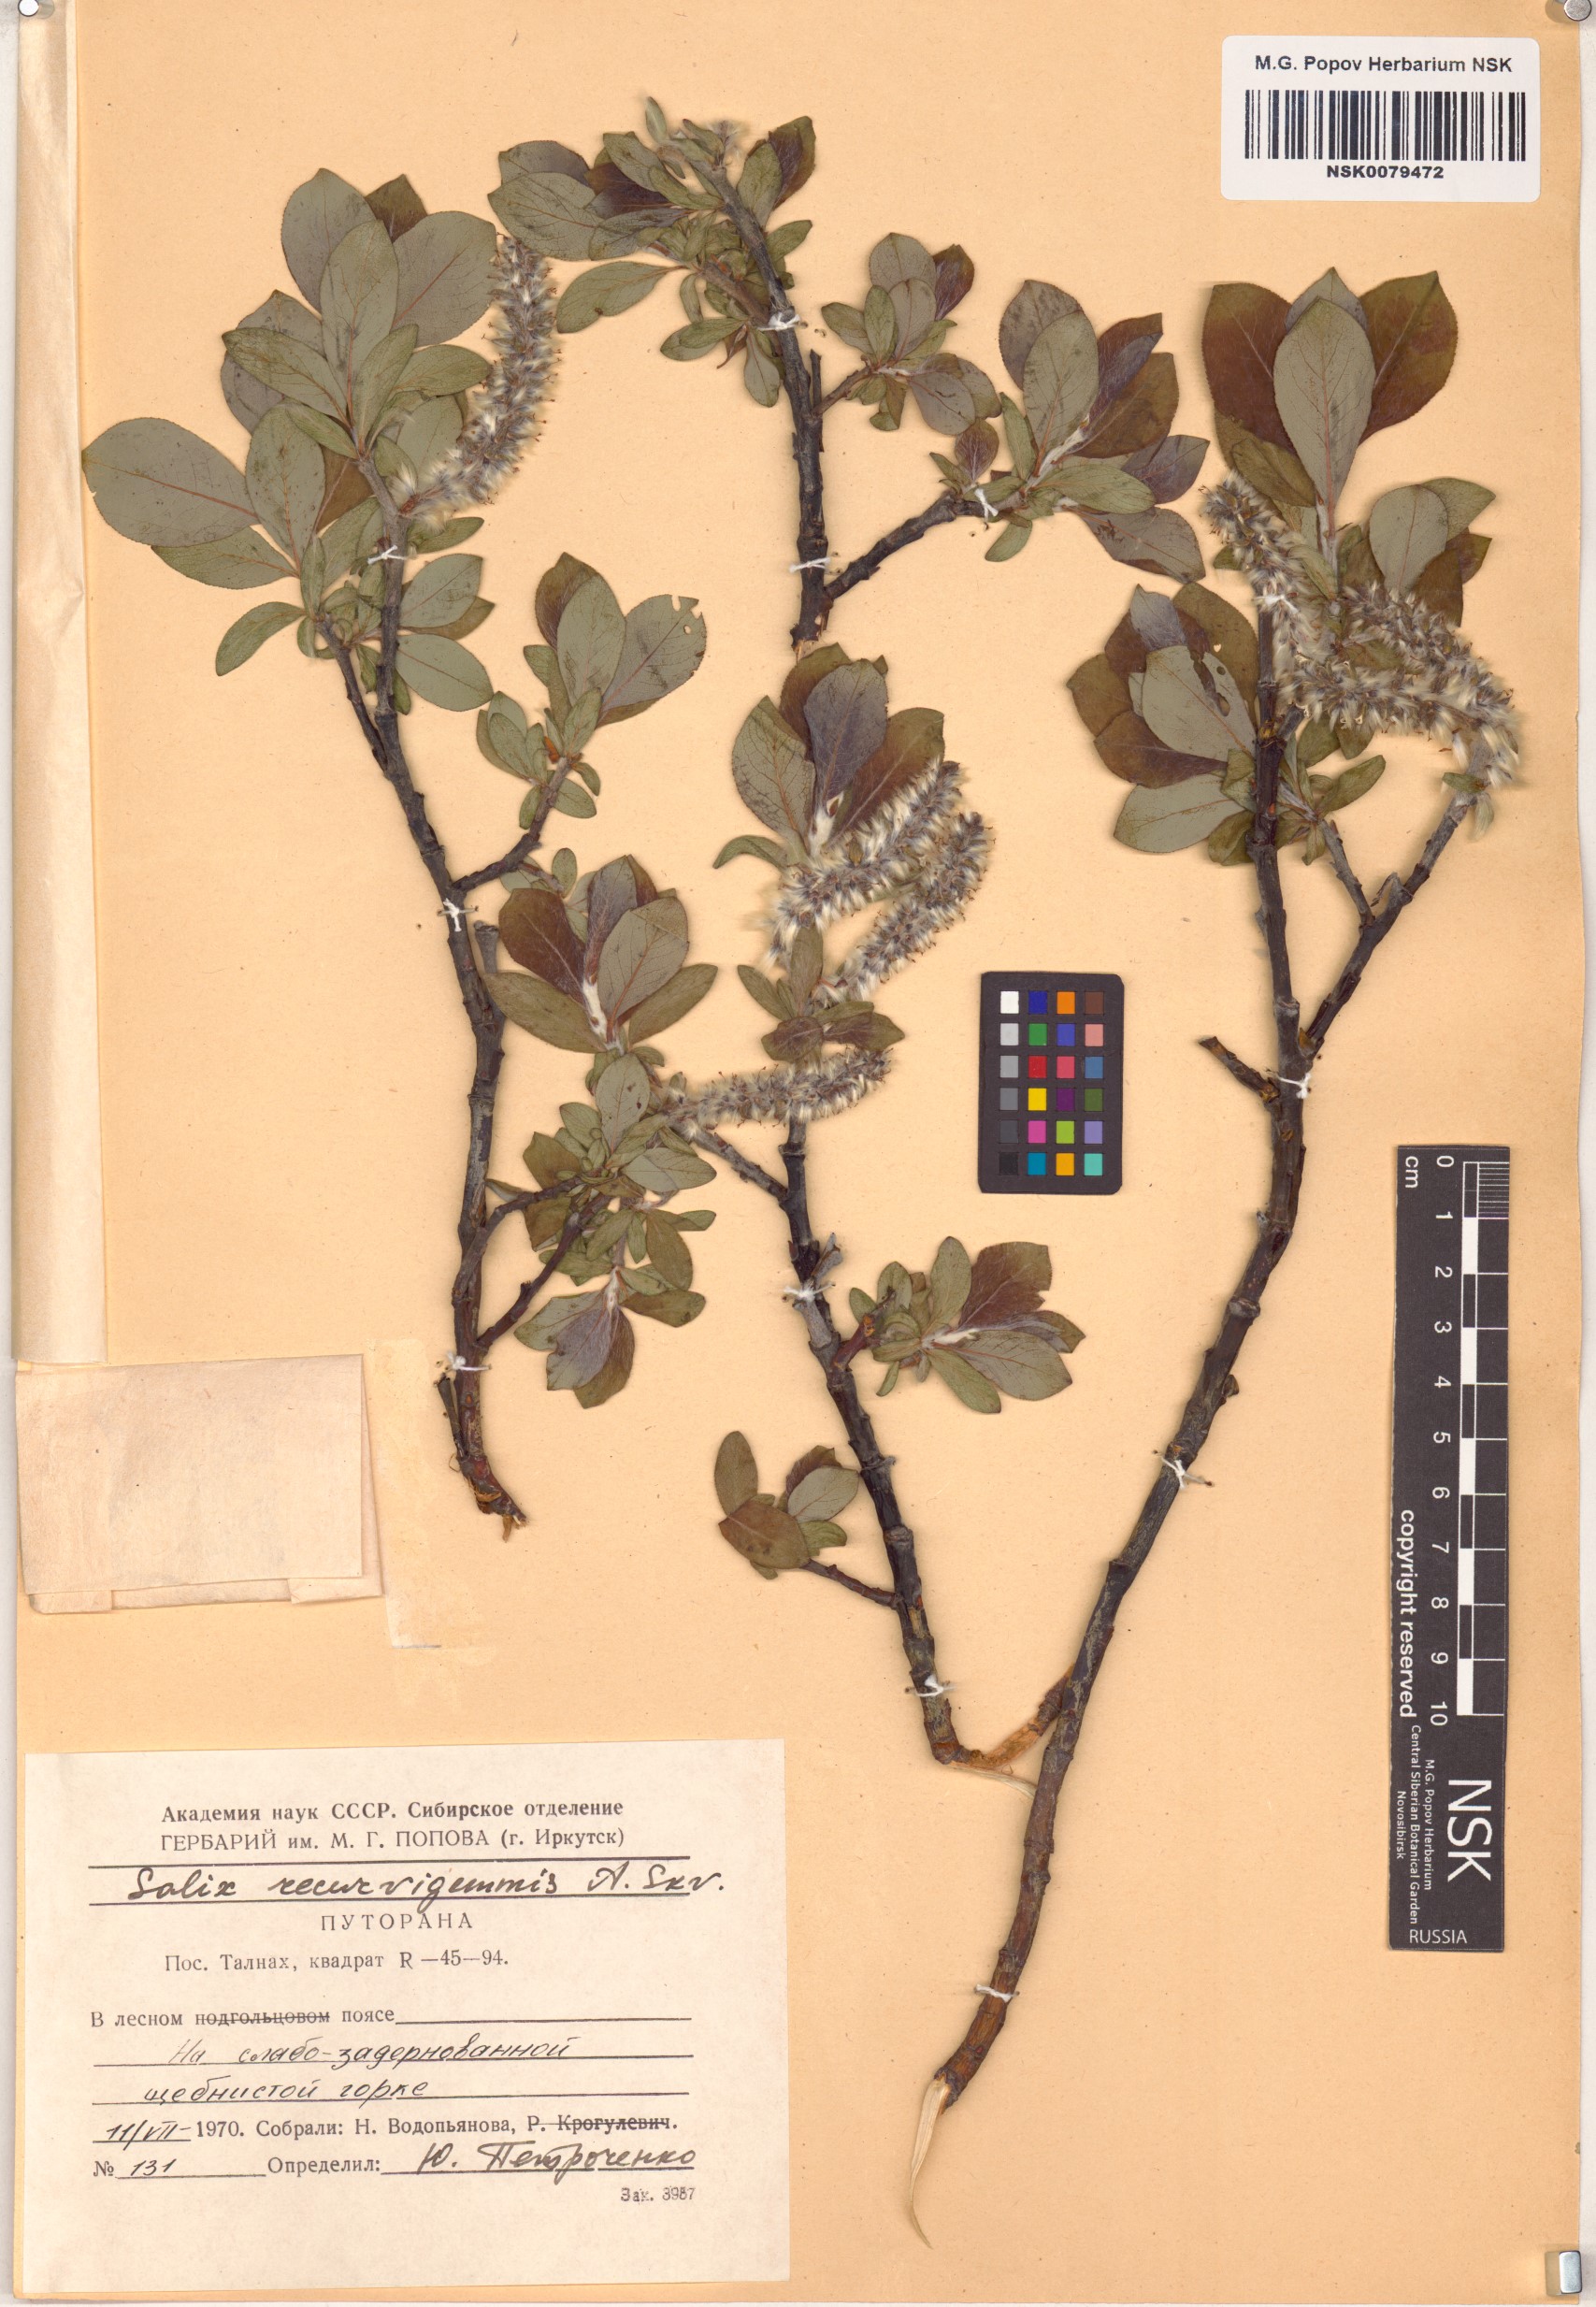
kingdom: Plantae
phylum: Tracheophyta
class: Magnoliopsida
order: Malpighiales
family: Salicaceae
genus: Salix
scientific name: Salix recurvigemmata
